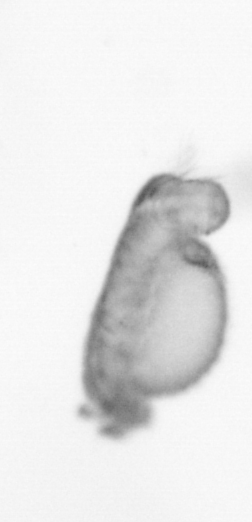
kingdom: Animalia
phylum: Annelida
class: Polychaeta
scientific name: Polychaeta
